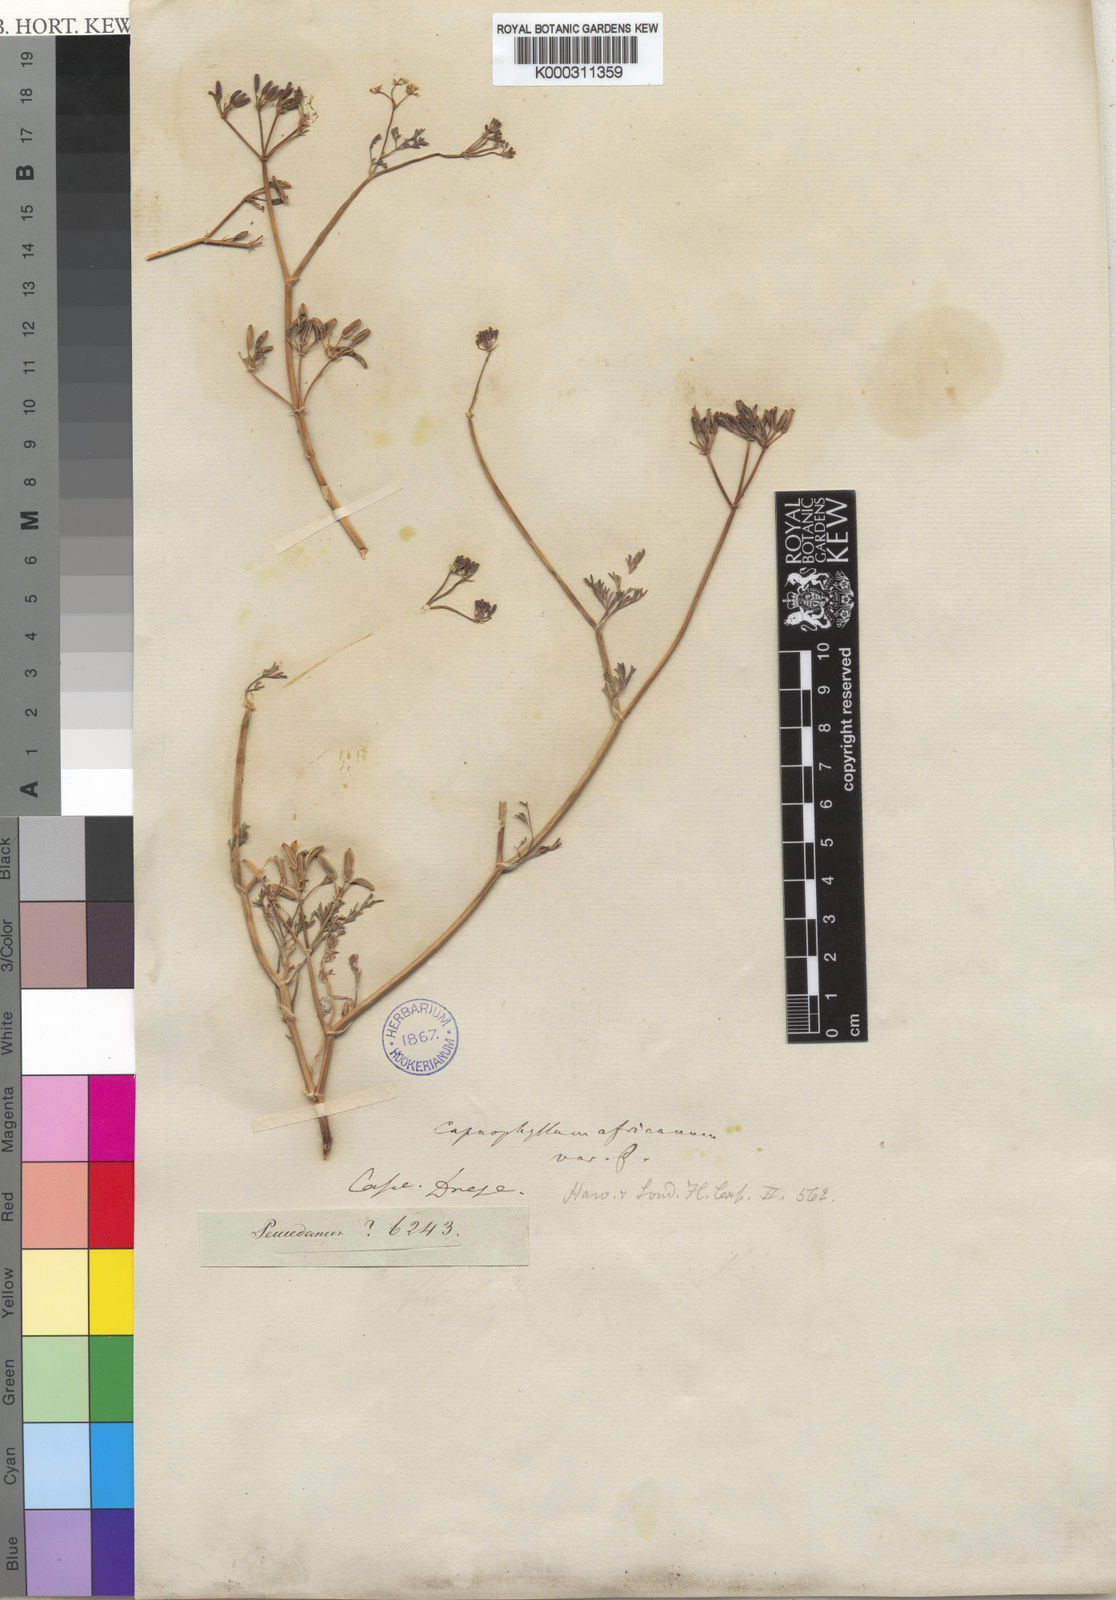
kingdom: Plantae
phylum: Tracheophyta
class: Magnoliopsida
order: Apiales
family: Apiaceae
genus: Capnophyllum
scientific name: Capnophyllum africanum
